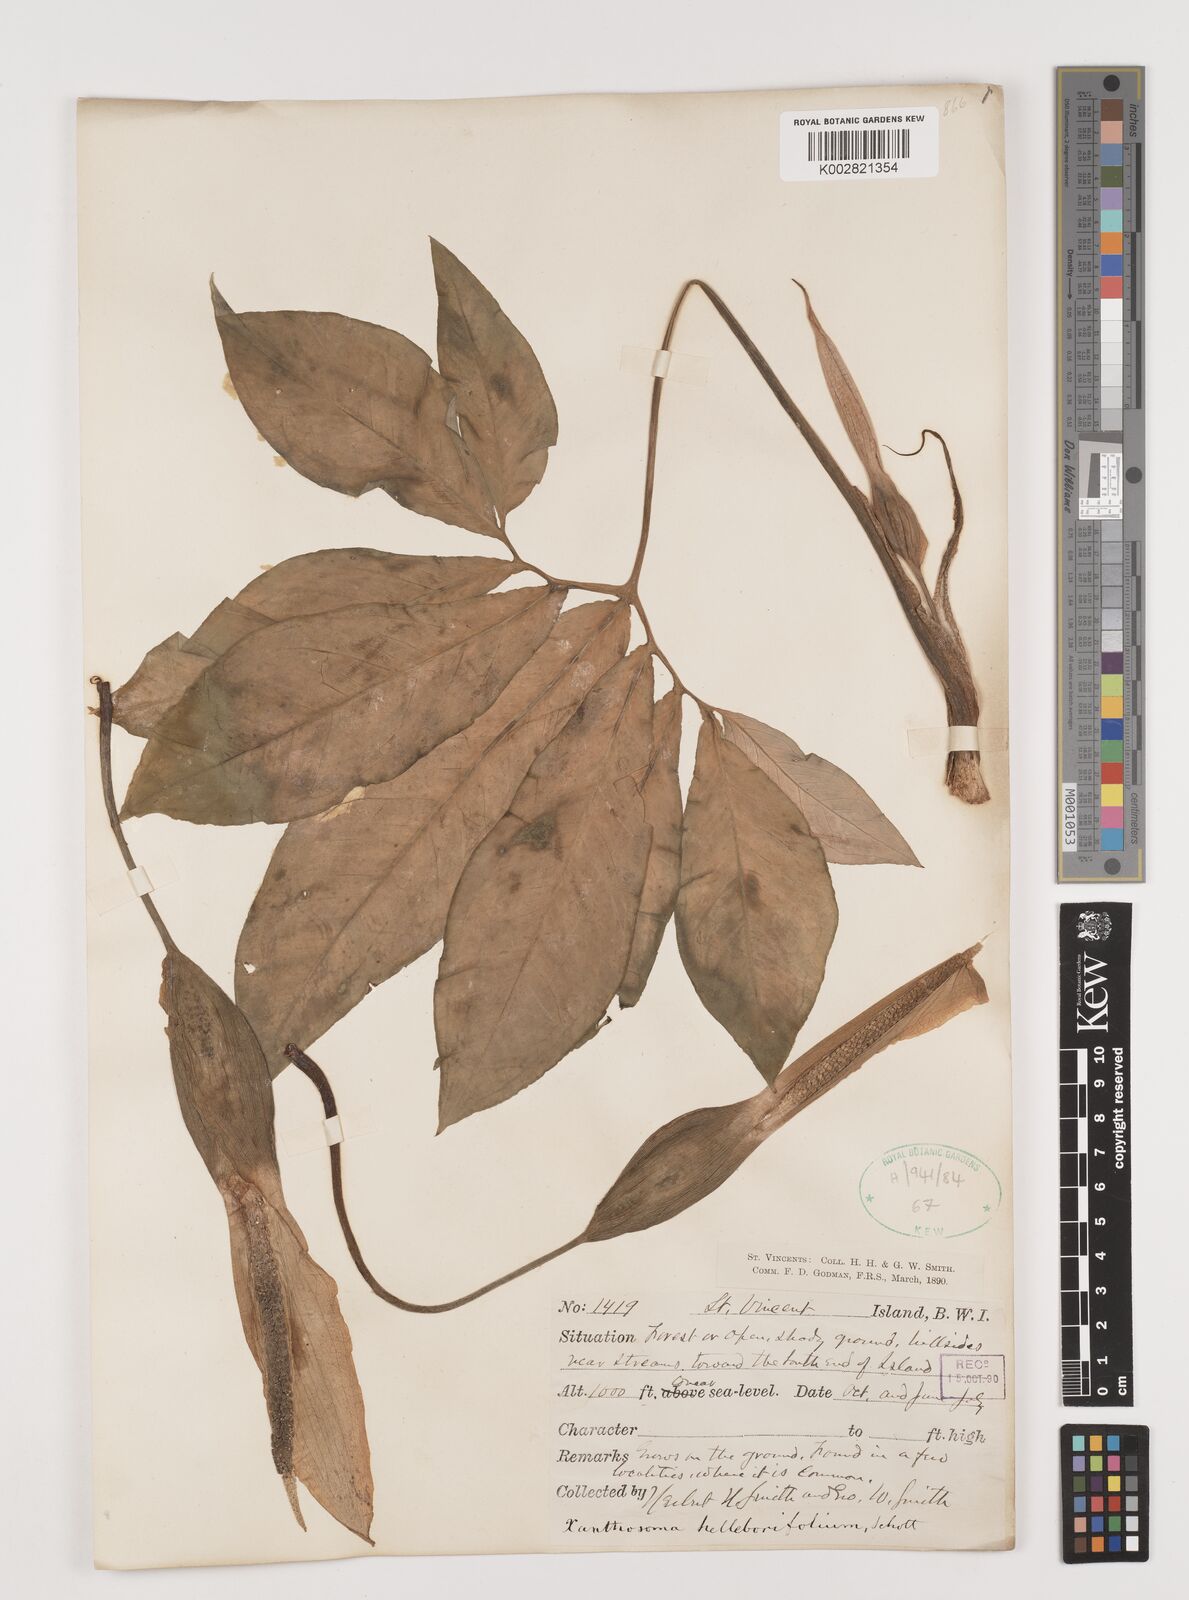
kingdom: Plantae
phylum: Tracheophyta
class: Liliopsida
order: Alismatales
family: Araceae
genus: Xanthosoma
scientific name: Xanthosoma helleborifolium
